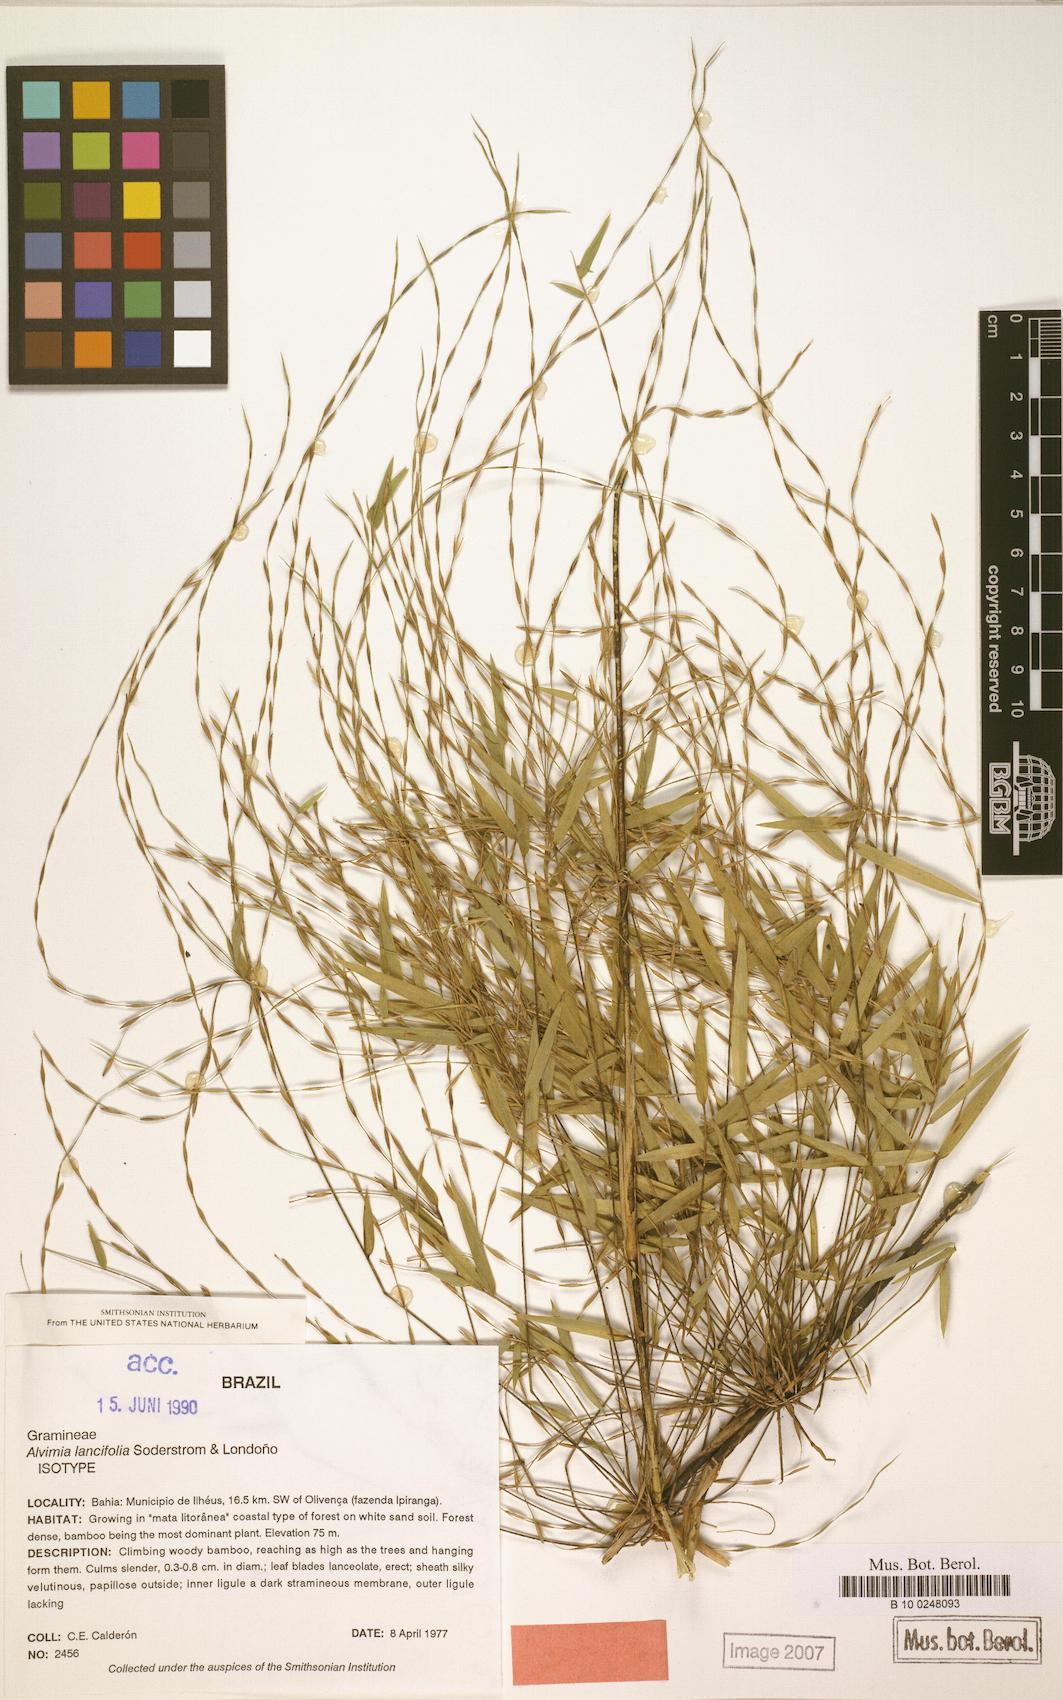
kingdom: Plantae
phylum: Tracheophyta
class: Liliopsida
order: Poales
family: Poaceae
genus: Alvimia
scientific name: Alvimia lancifolia
